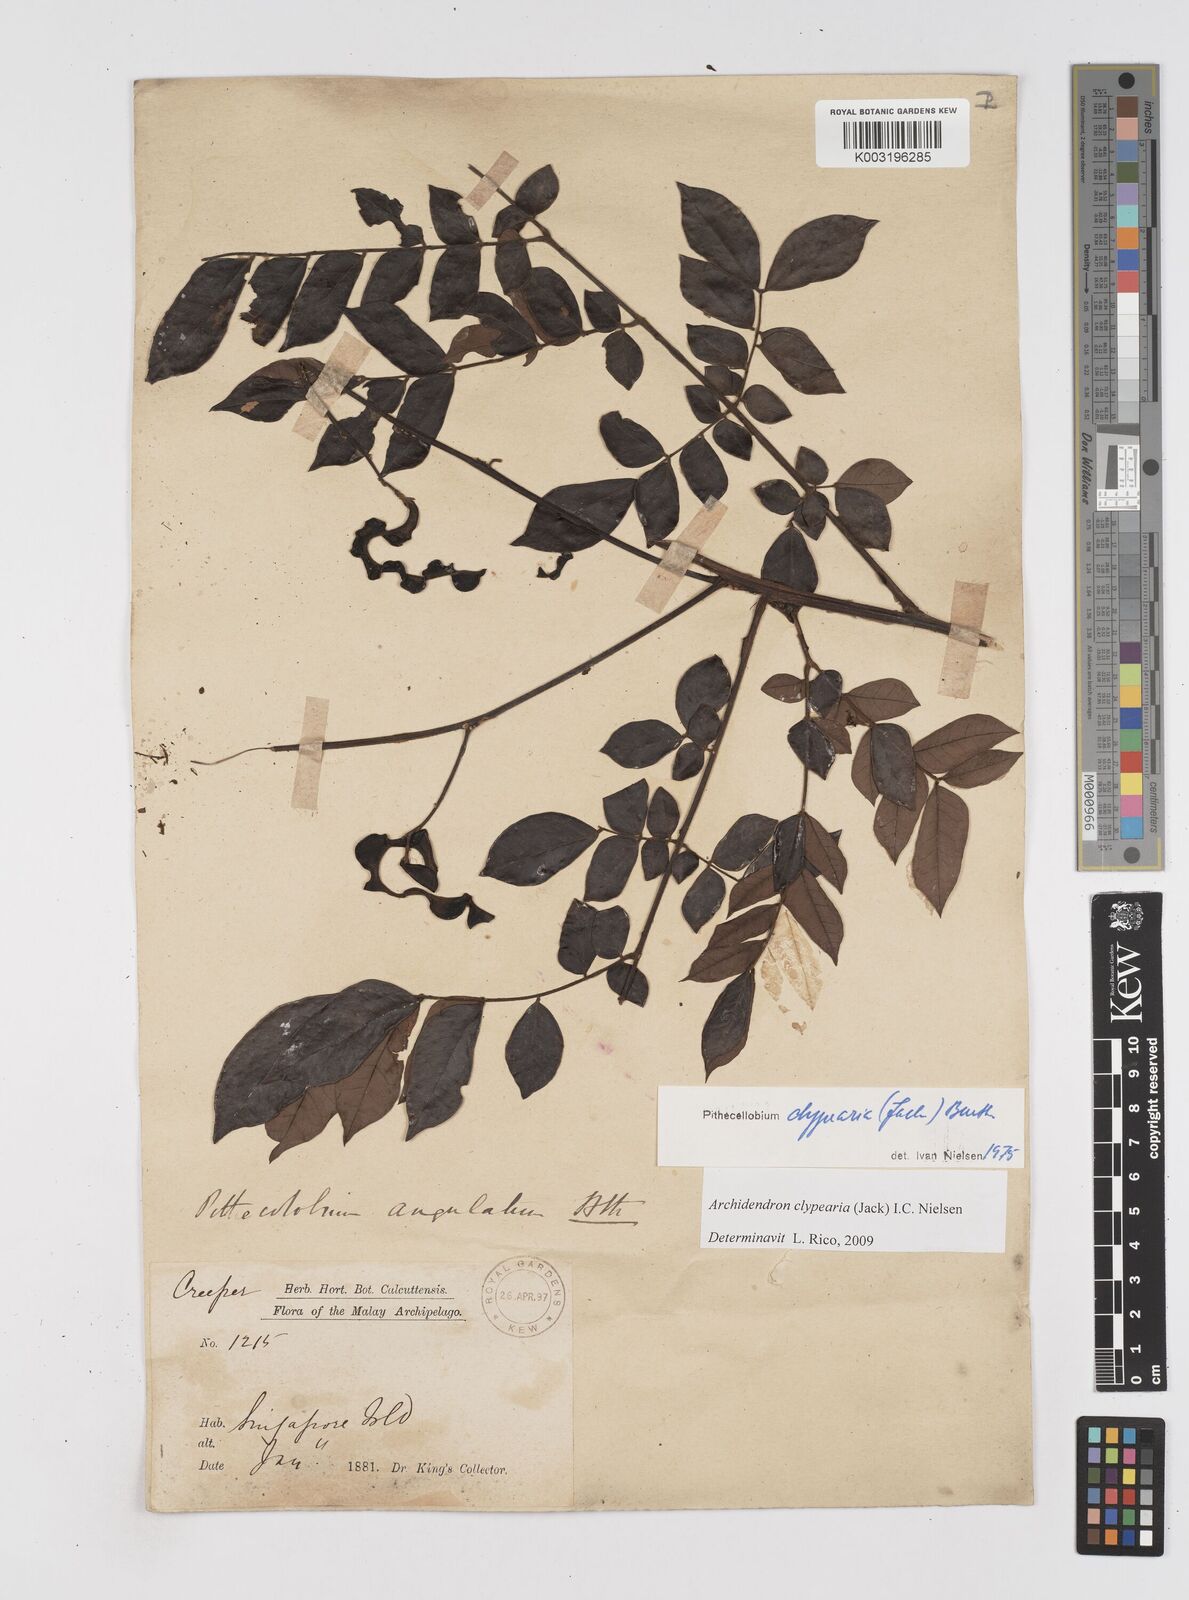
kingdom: Plantae
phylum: Tracheophyta
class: Magnoliopsida
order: Fabales
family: Fabaceae
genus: Archidendron
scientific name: Archidendron clypearia
